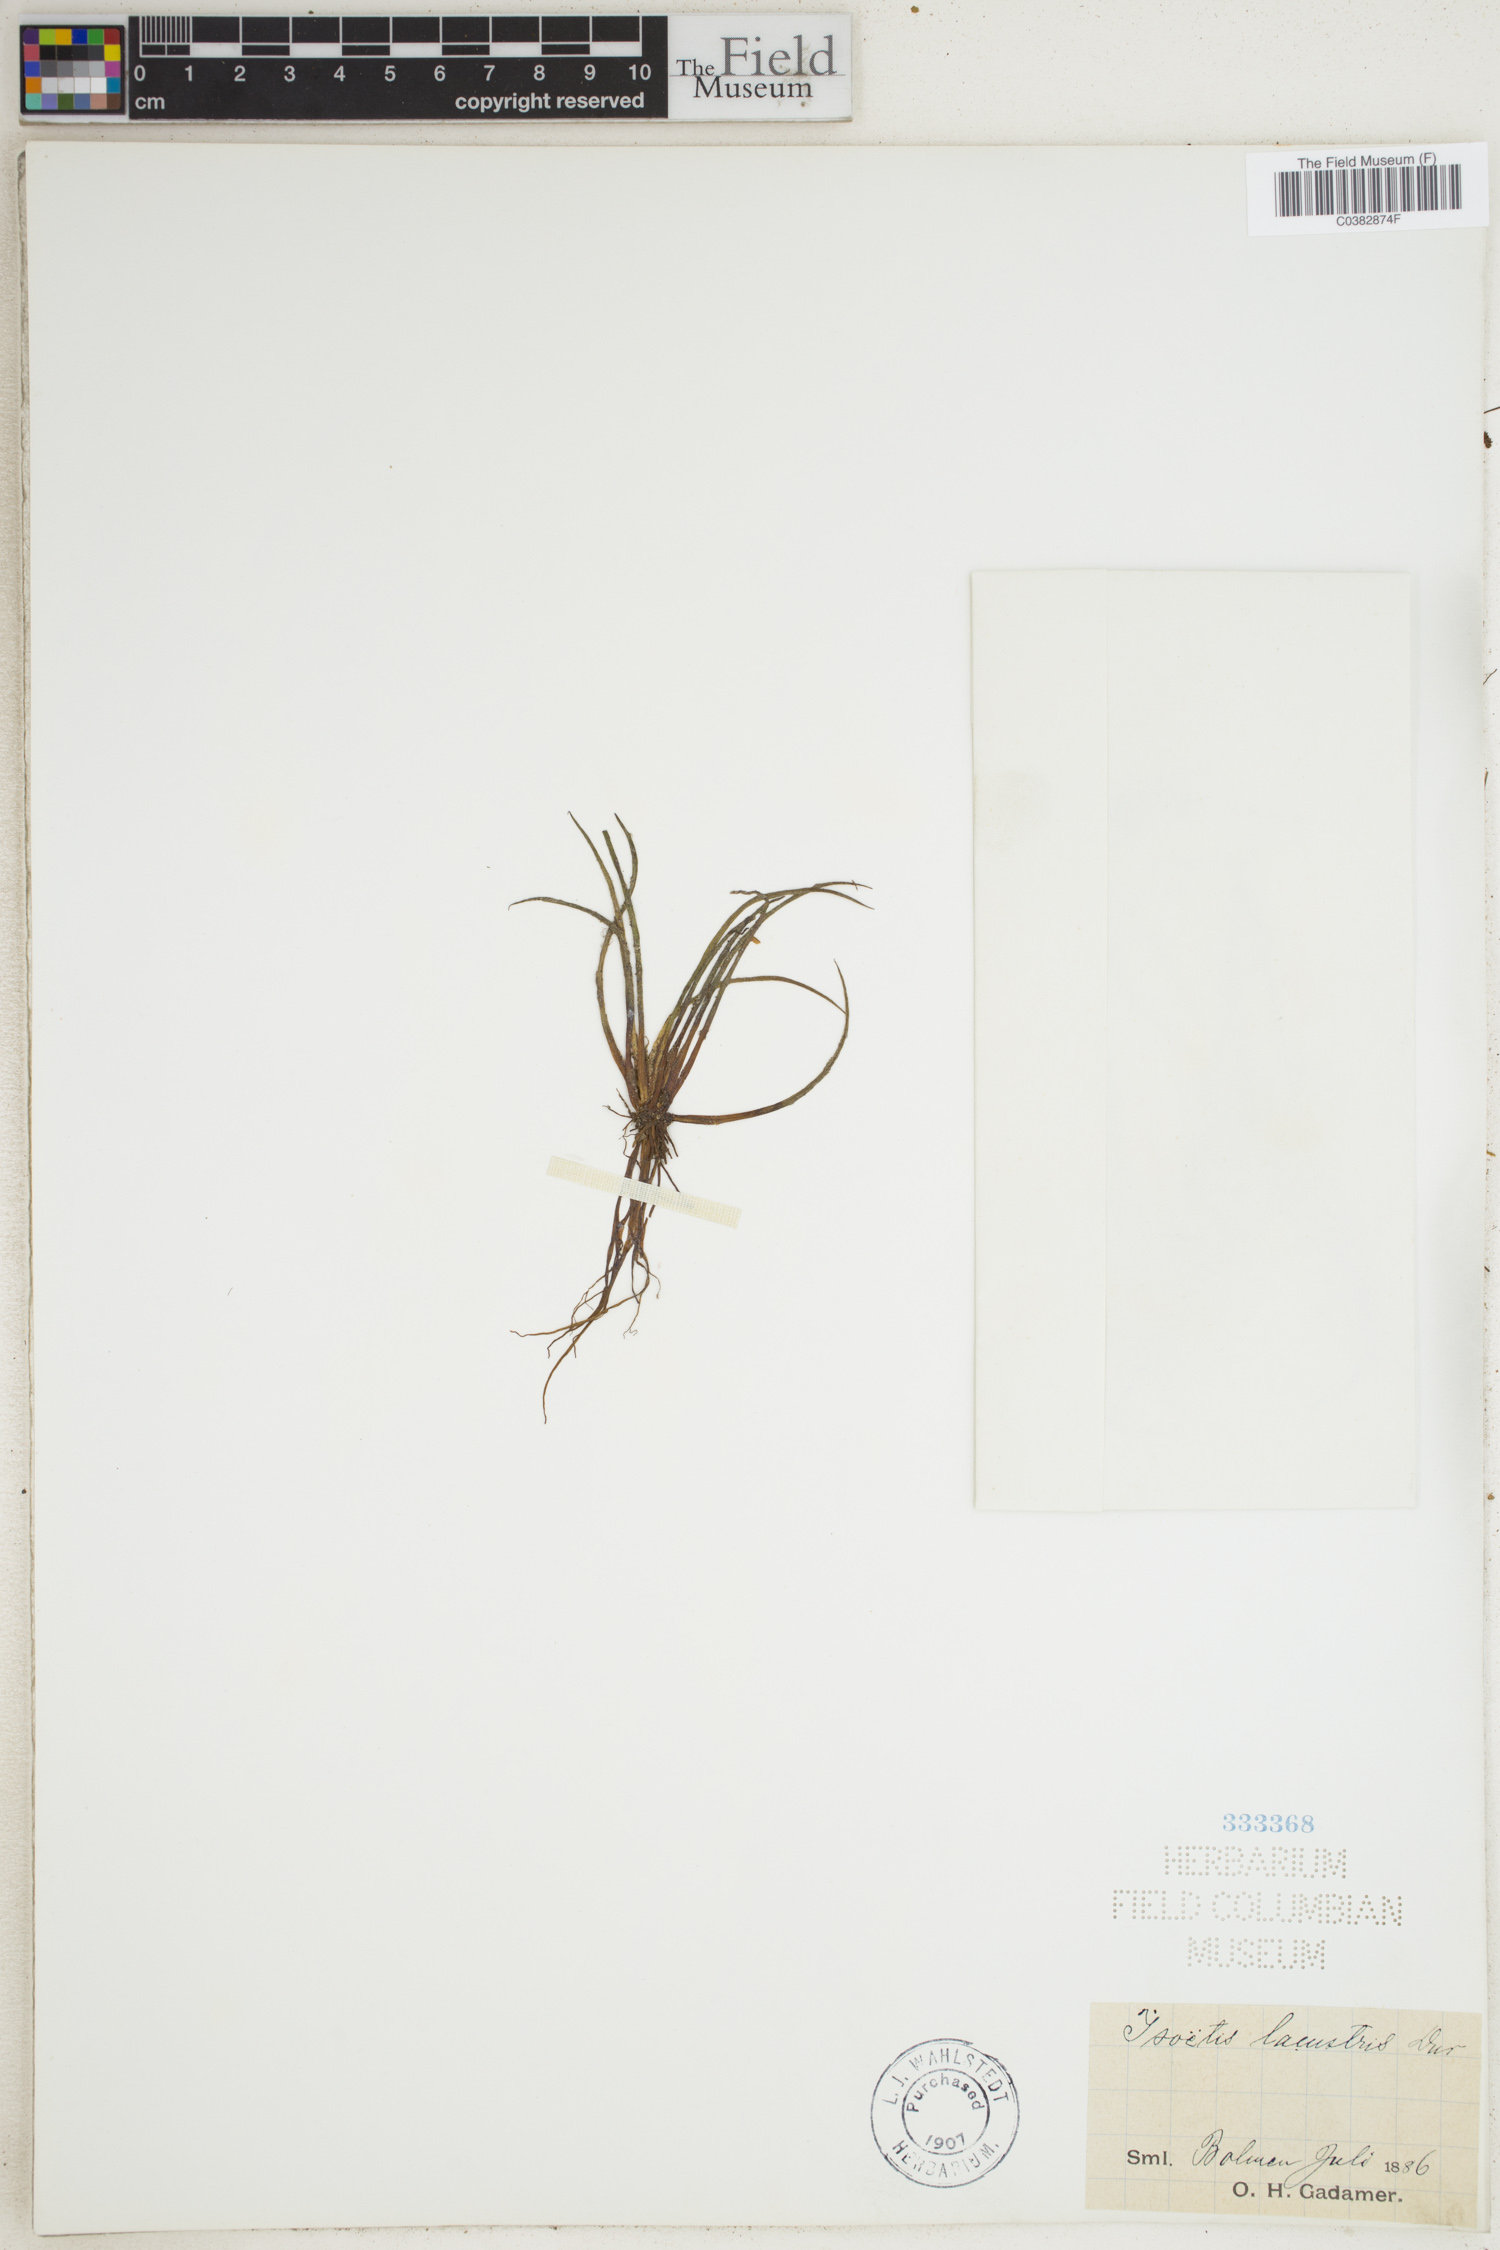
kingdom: Plantae
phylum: Tracheophyta
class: Lycopodiopsida
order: Isoetales
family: Isoetaceae
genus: Isoetes
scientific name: Isoetes lacustris
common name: Common quillwort
